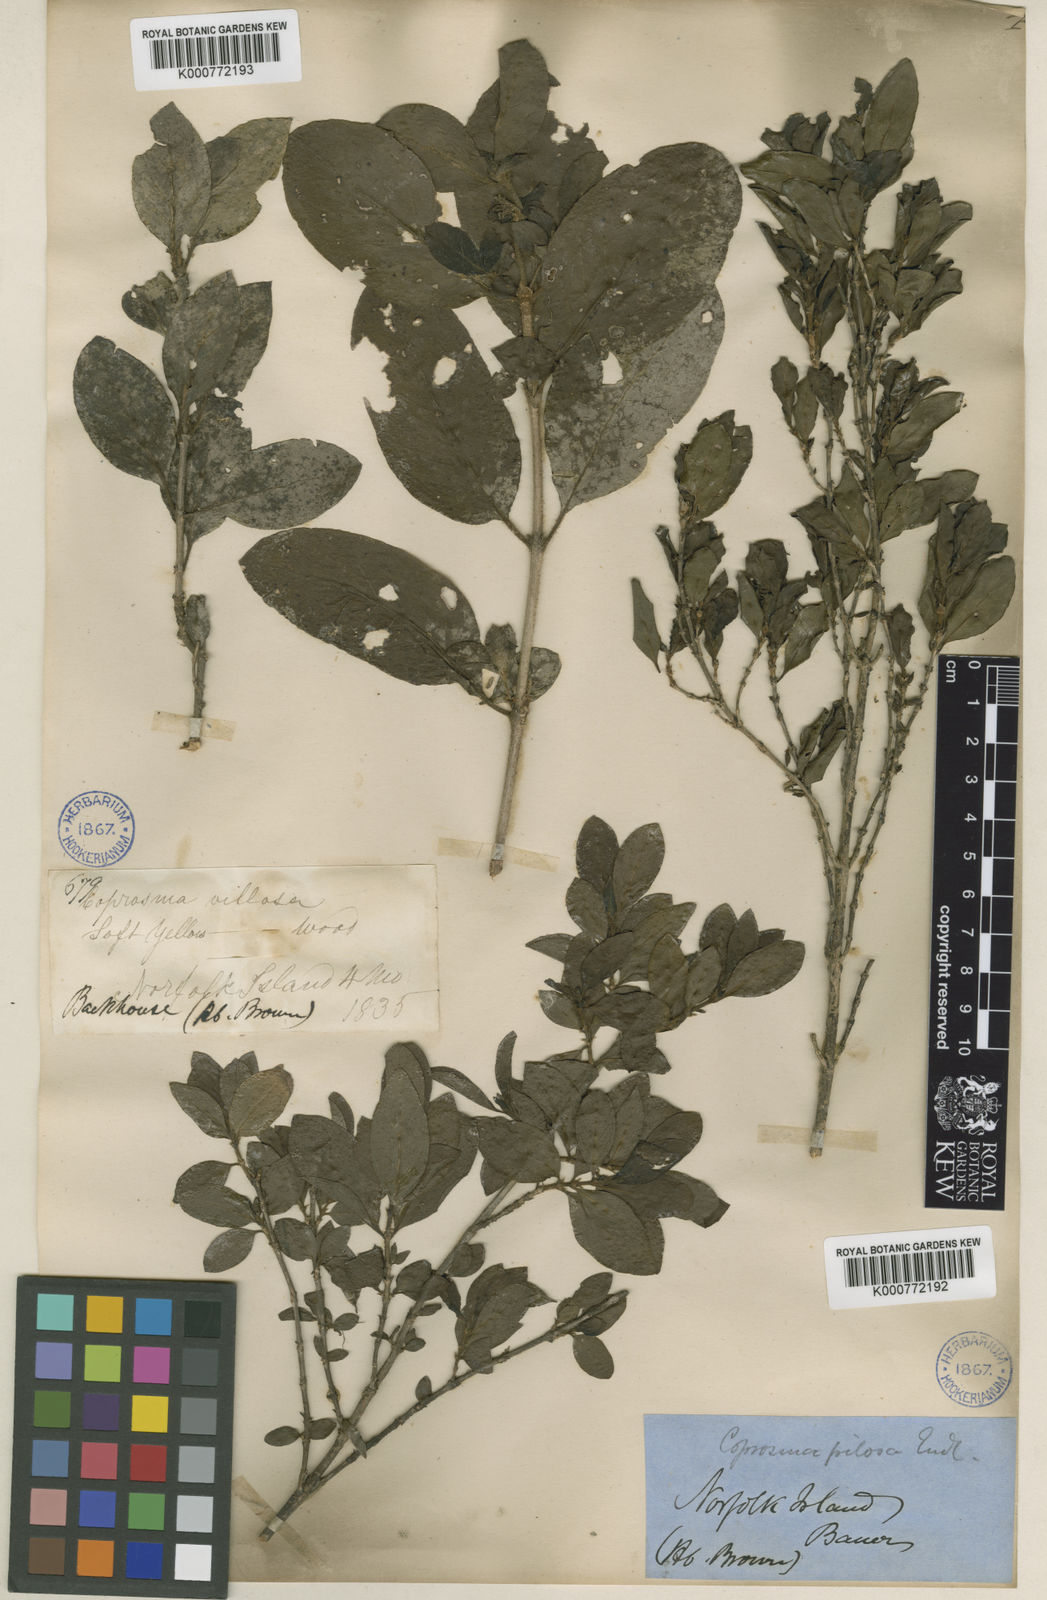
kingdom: Plantae
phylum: Tracheophyta
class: Magnoliopsida
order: Gentianales
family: Rubiaceae
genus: Coprosma
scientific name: Coprosma pilosa
